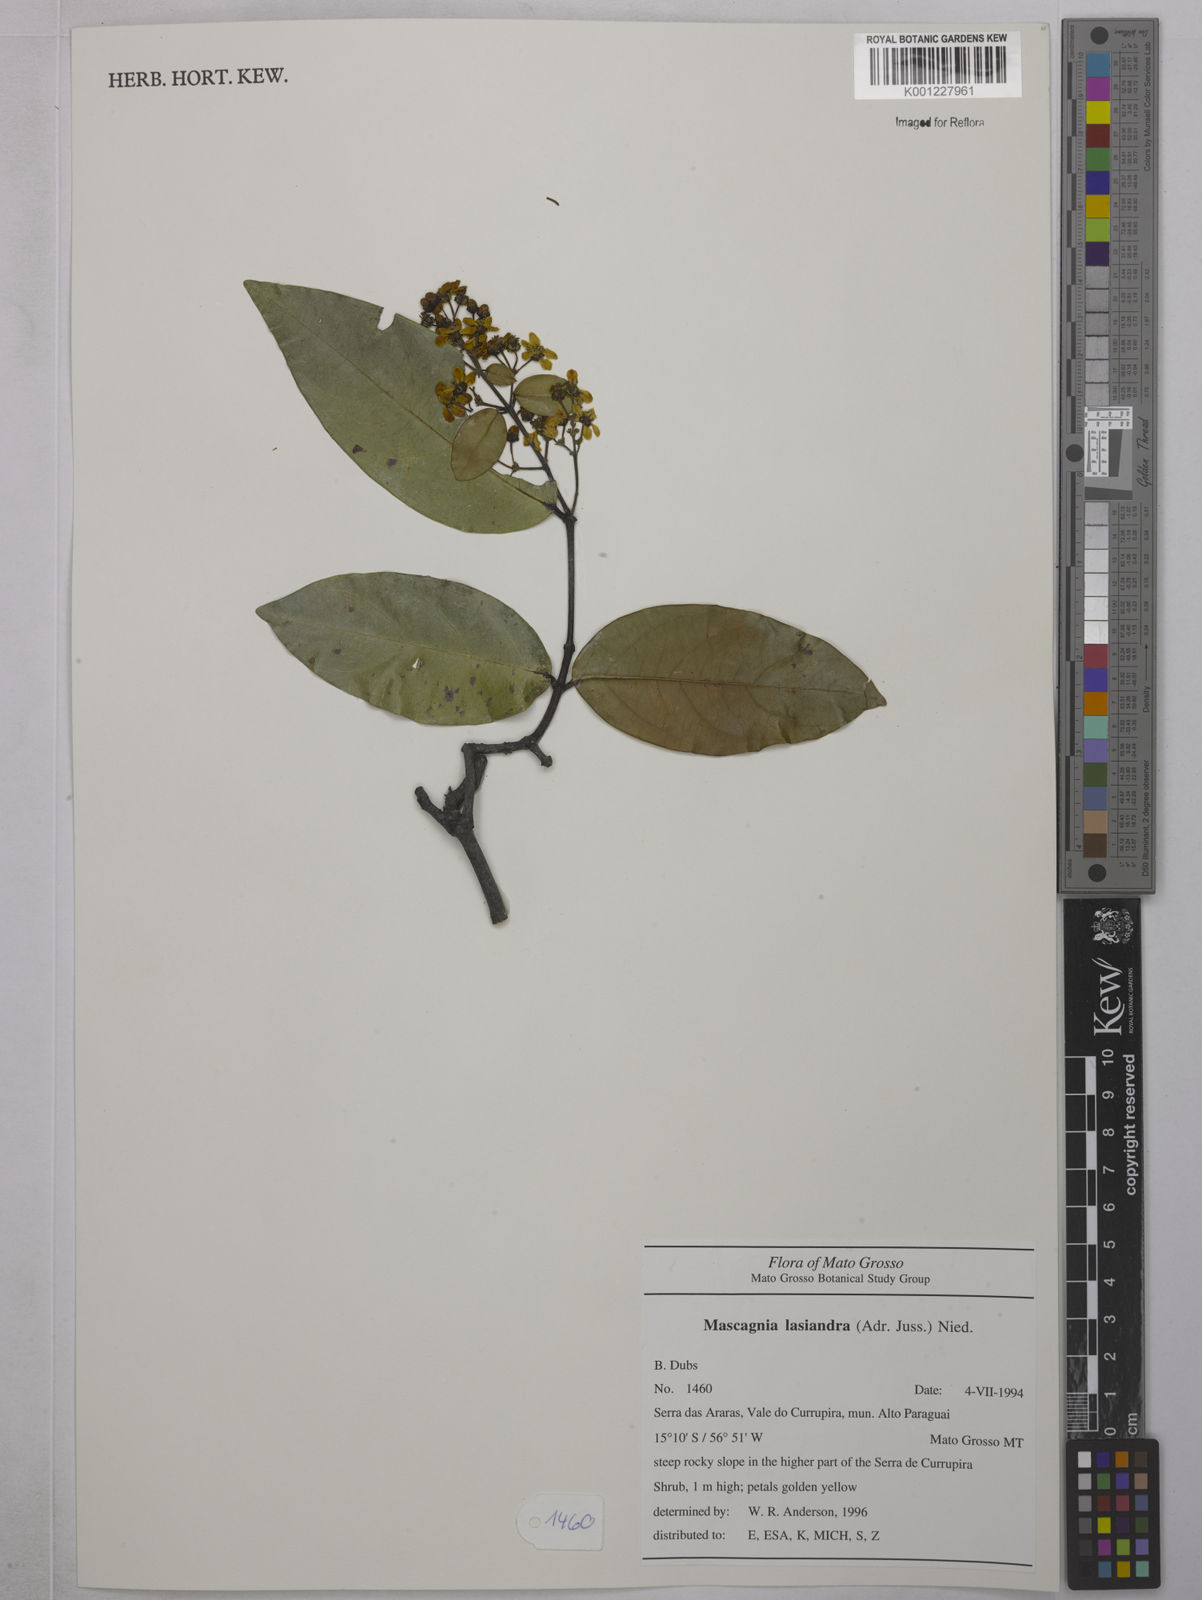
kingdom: Plantae
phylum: Tracheophyta
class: Magnoliopsida
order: Malpighiales
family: Malpighiaceae
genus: Niedenzuella
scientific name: Niedenzuella lasiandra
